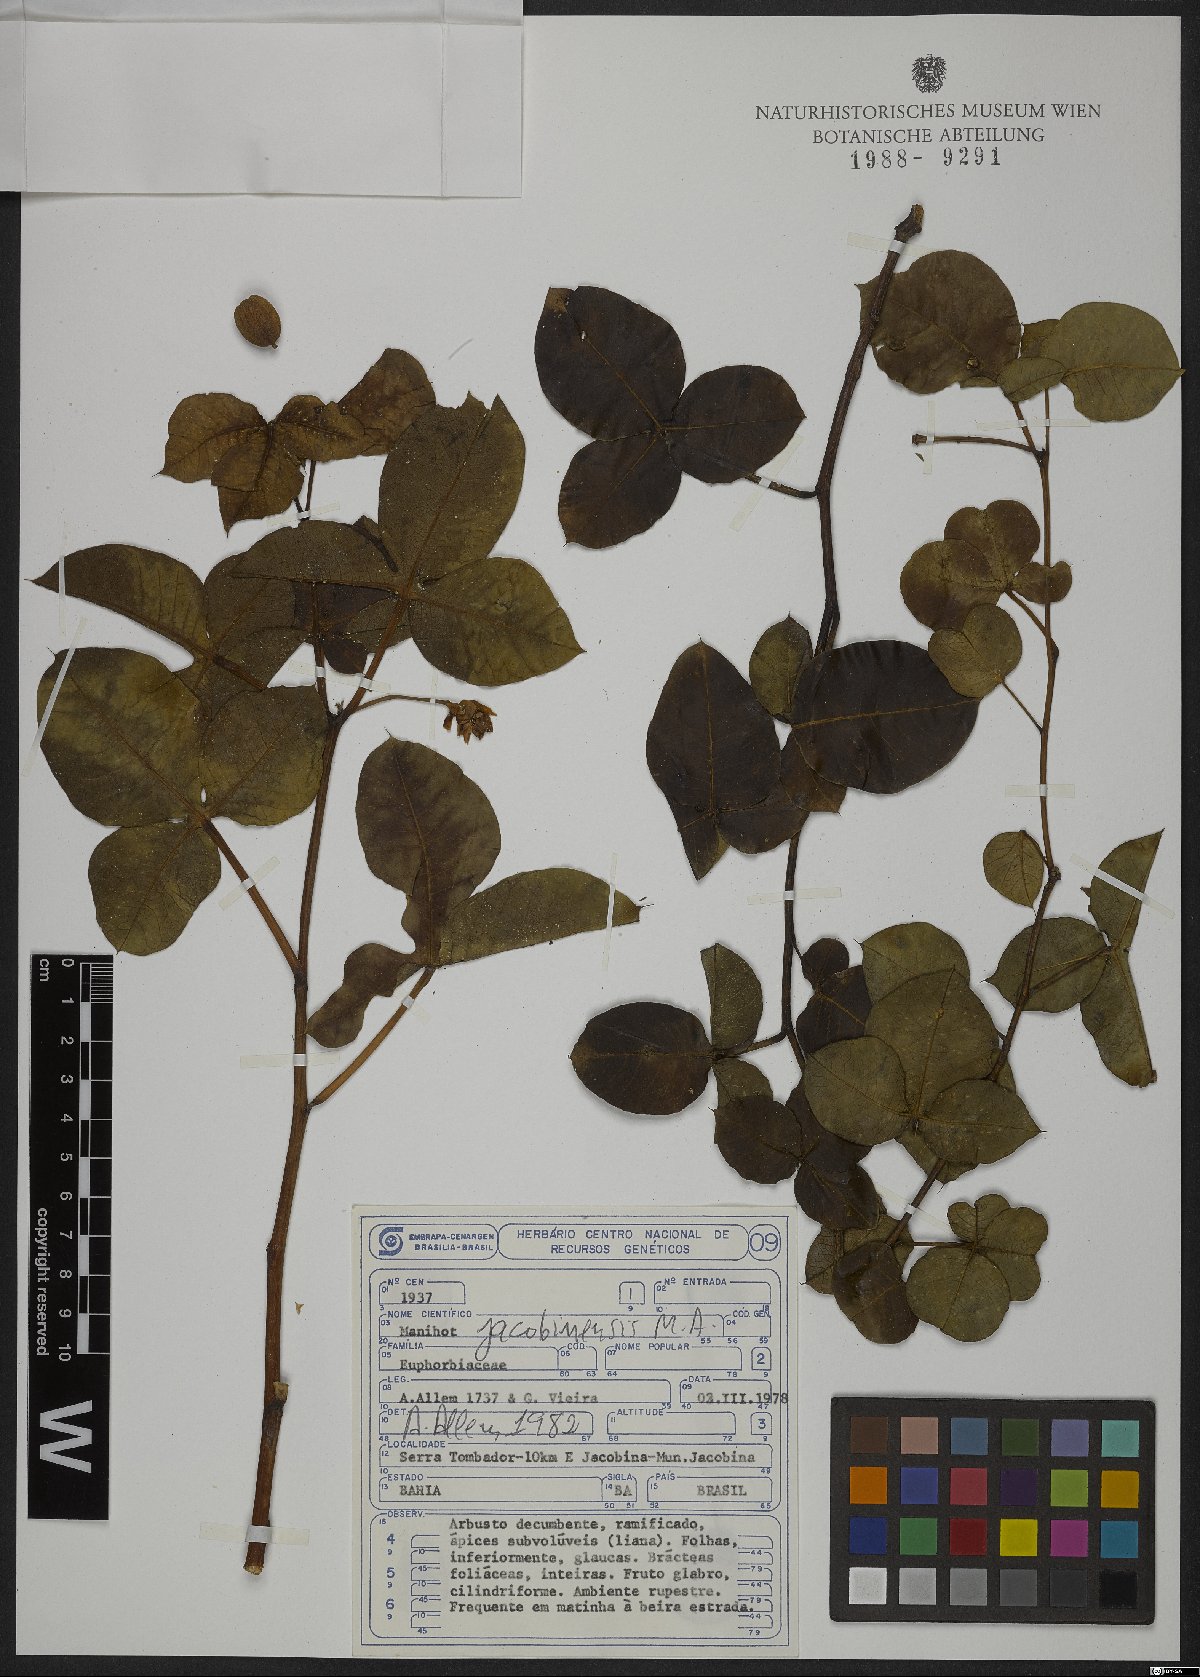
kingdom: Plantae
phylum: Tracheophyta
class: Magnoliopsida
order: Malpighiales
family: Euphorbiaceae
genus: Manihot
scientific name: Manihot jacobinensis
